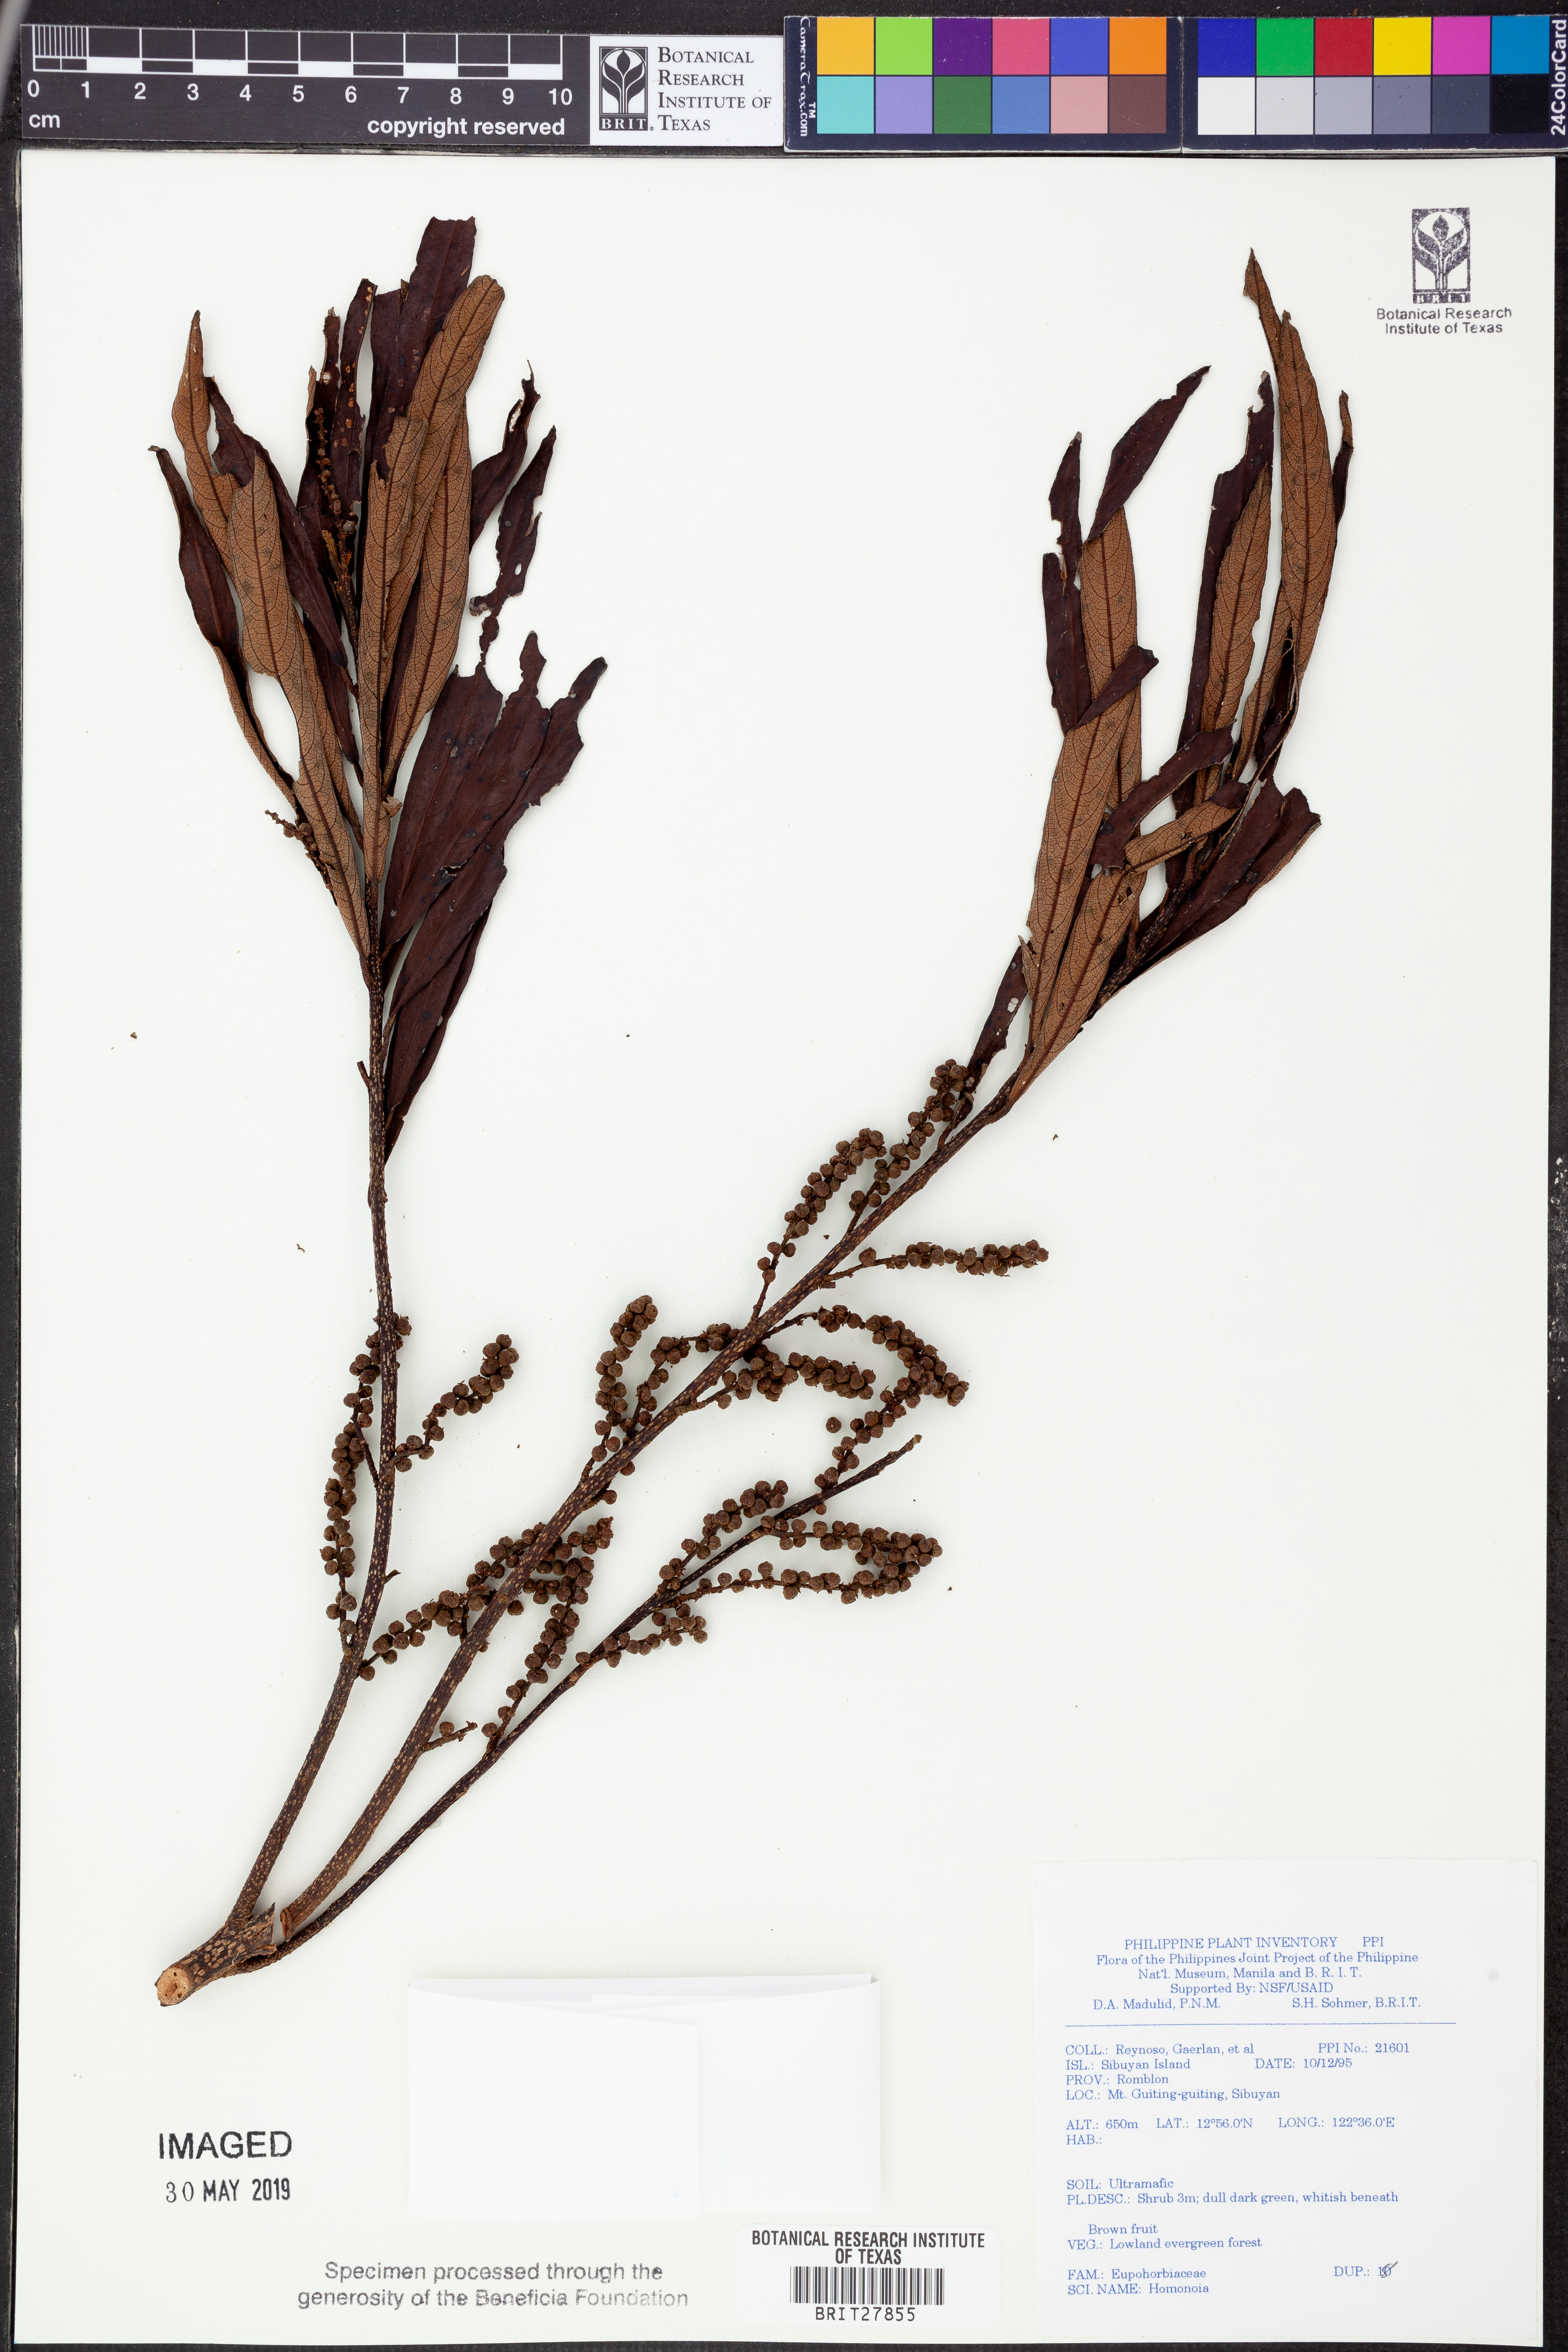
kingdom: Plantae
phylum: Tracheophyta
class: Magnoliopsida
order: Malpighiales
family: Euphorbiaceae
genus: Homonoia
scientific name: Homonoia
